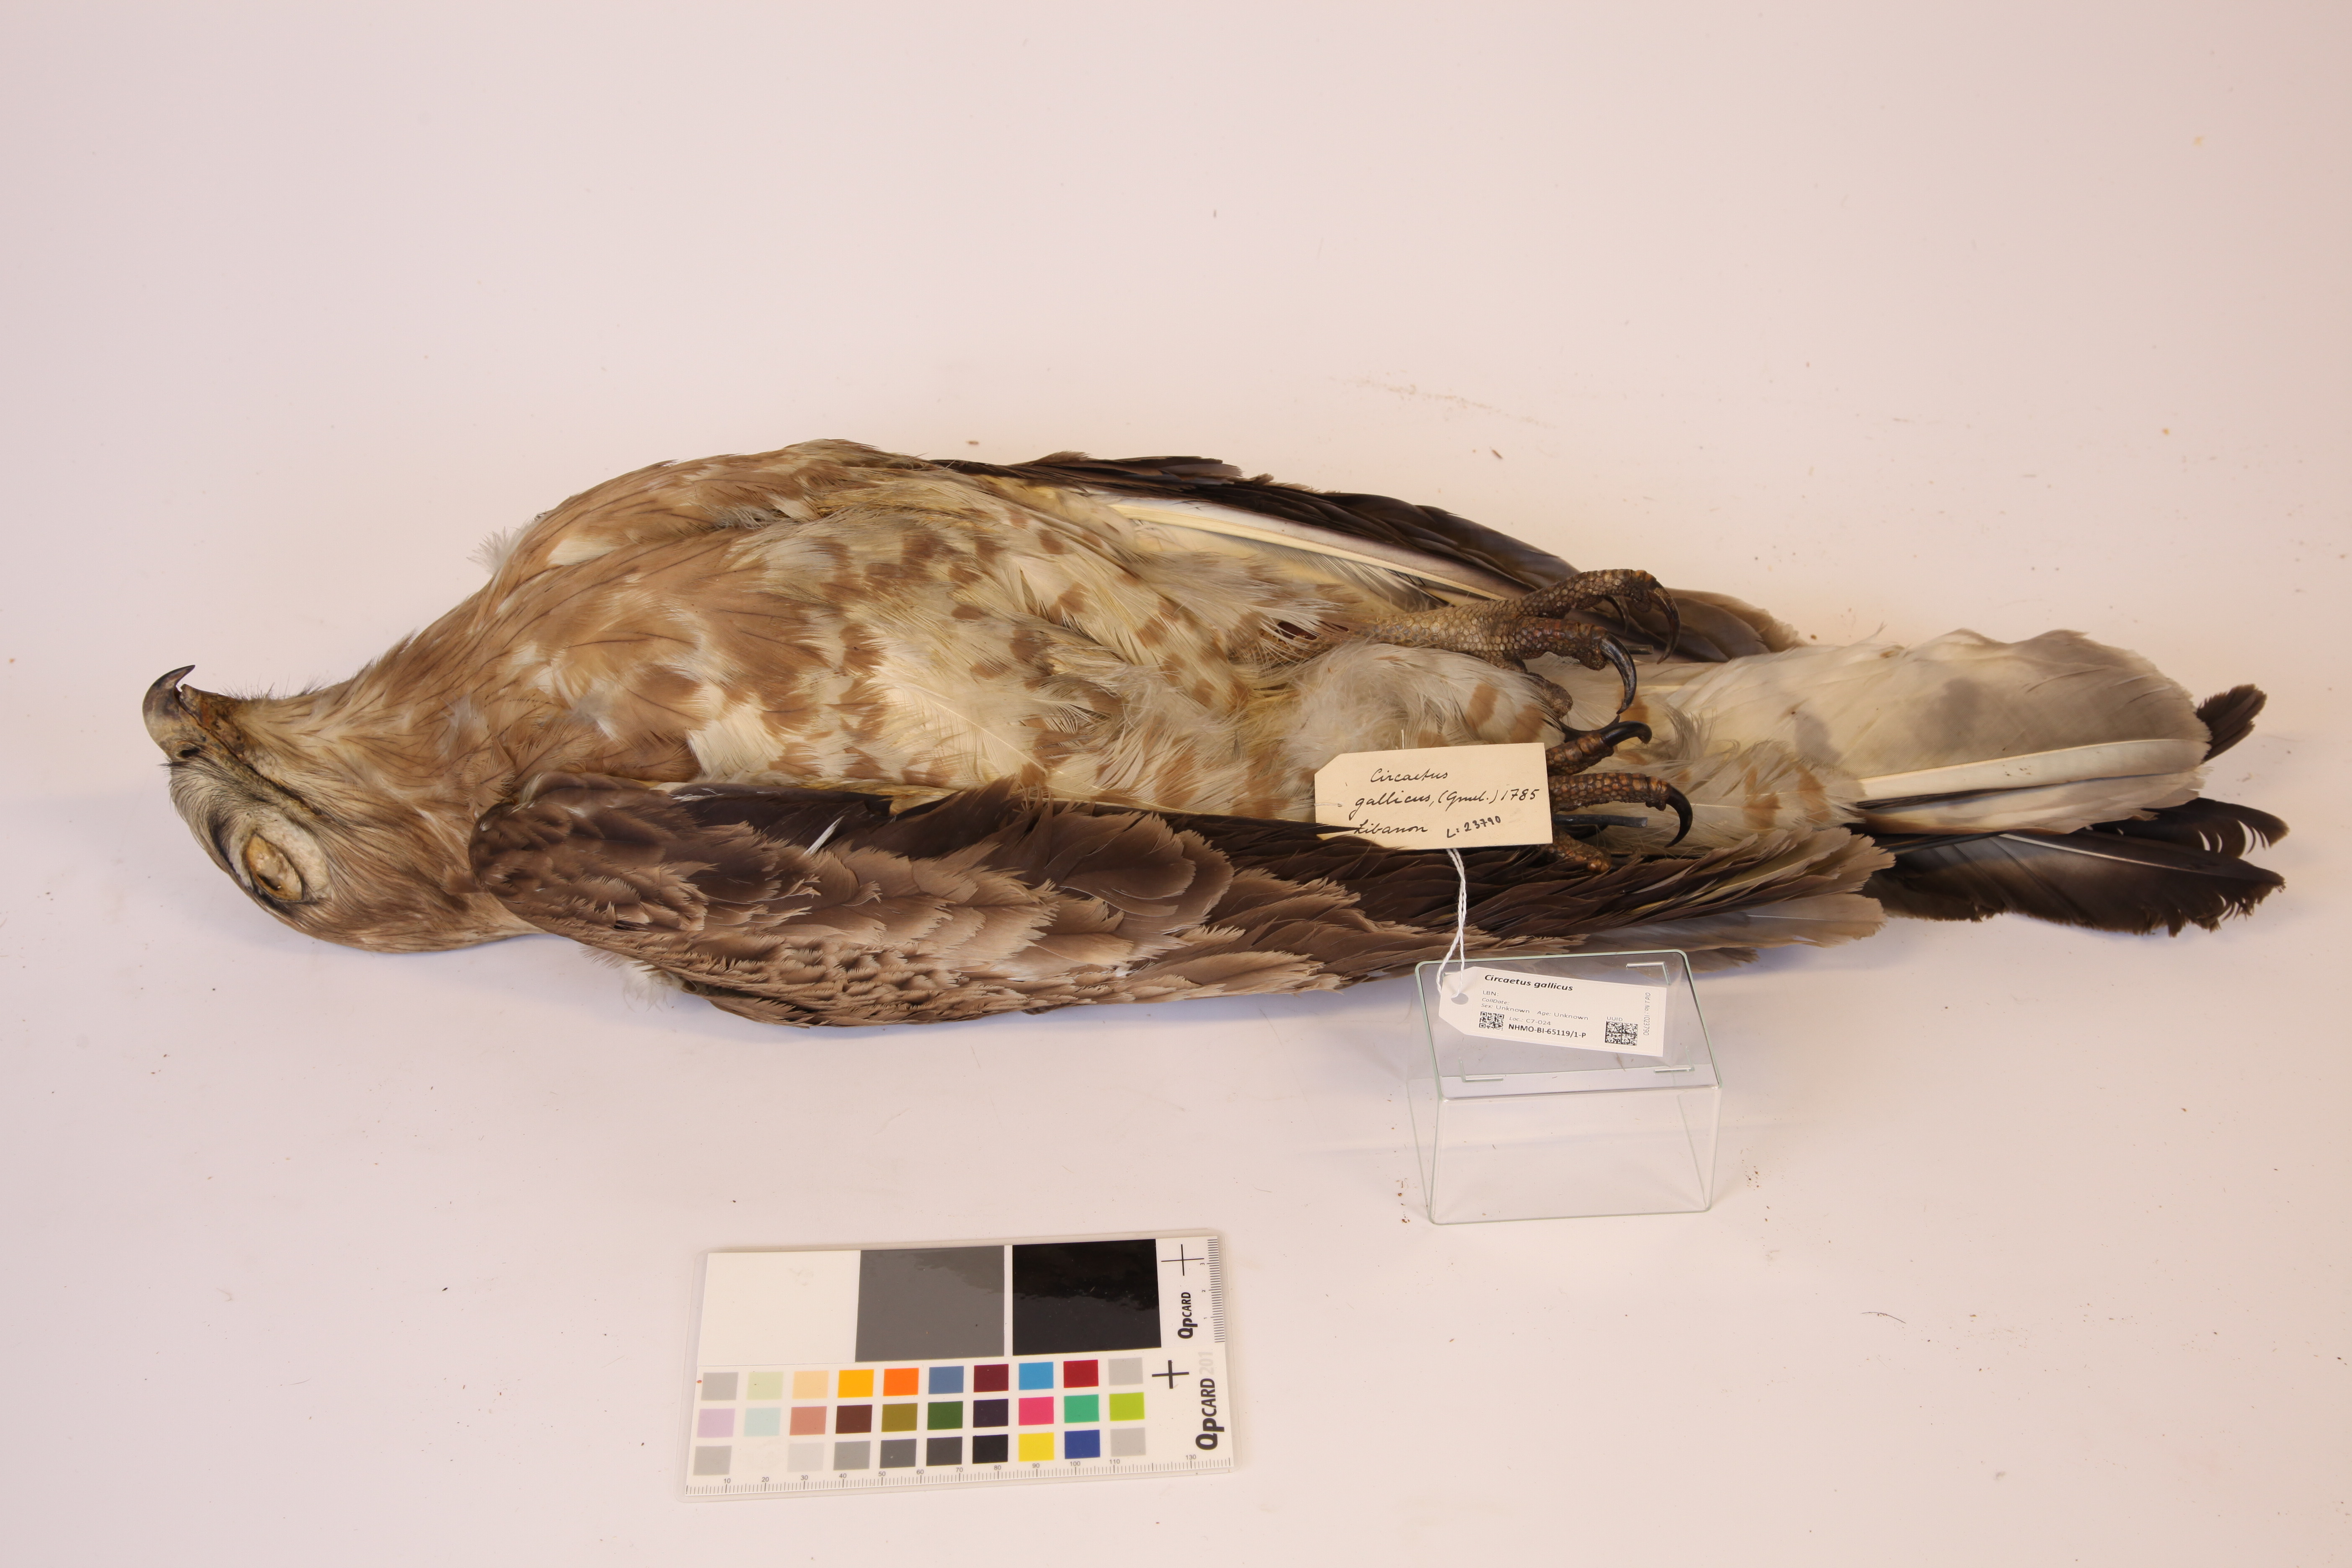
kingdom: Animalia
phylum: Chordata
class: Aves
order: Accipitriformes
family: Accipitridae
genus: Circaetus
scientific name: Circaetus gallicus
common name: Short-toed snake eagle
